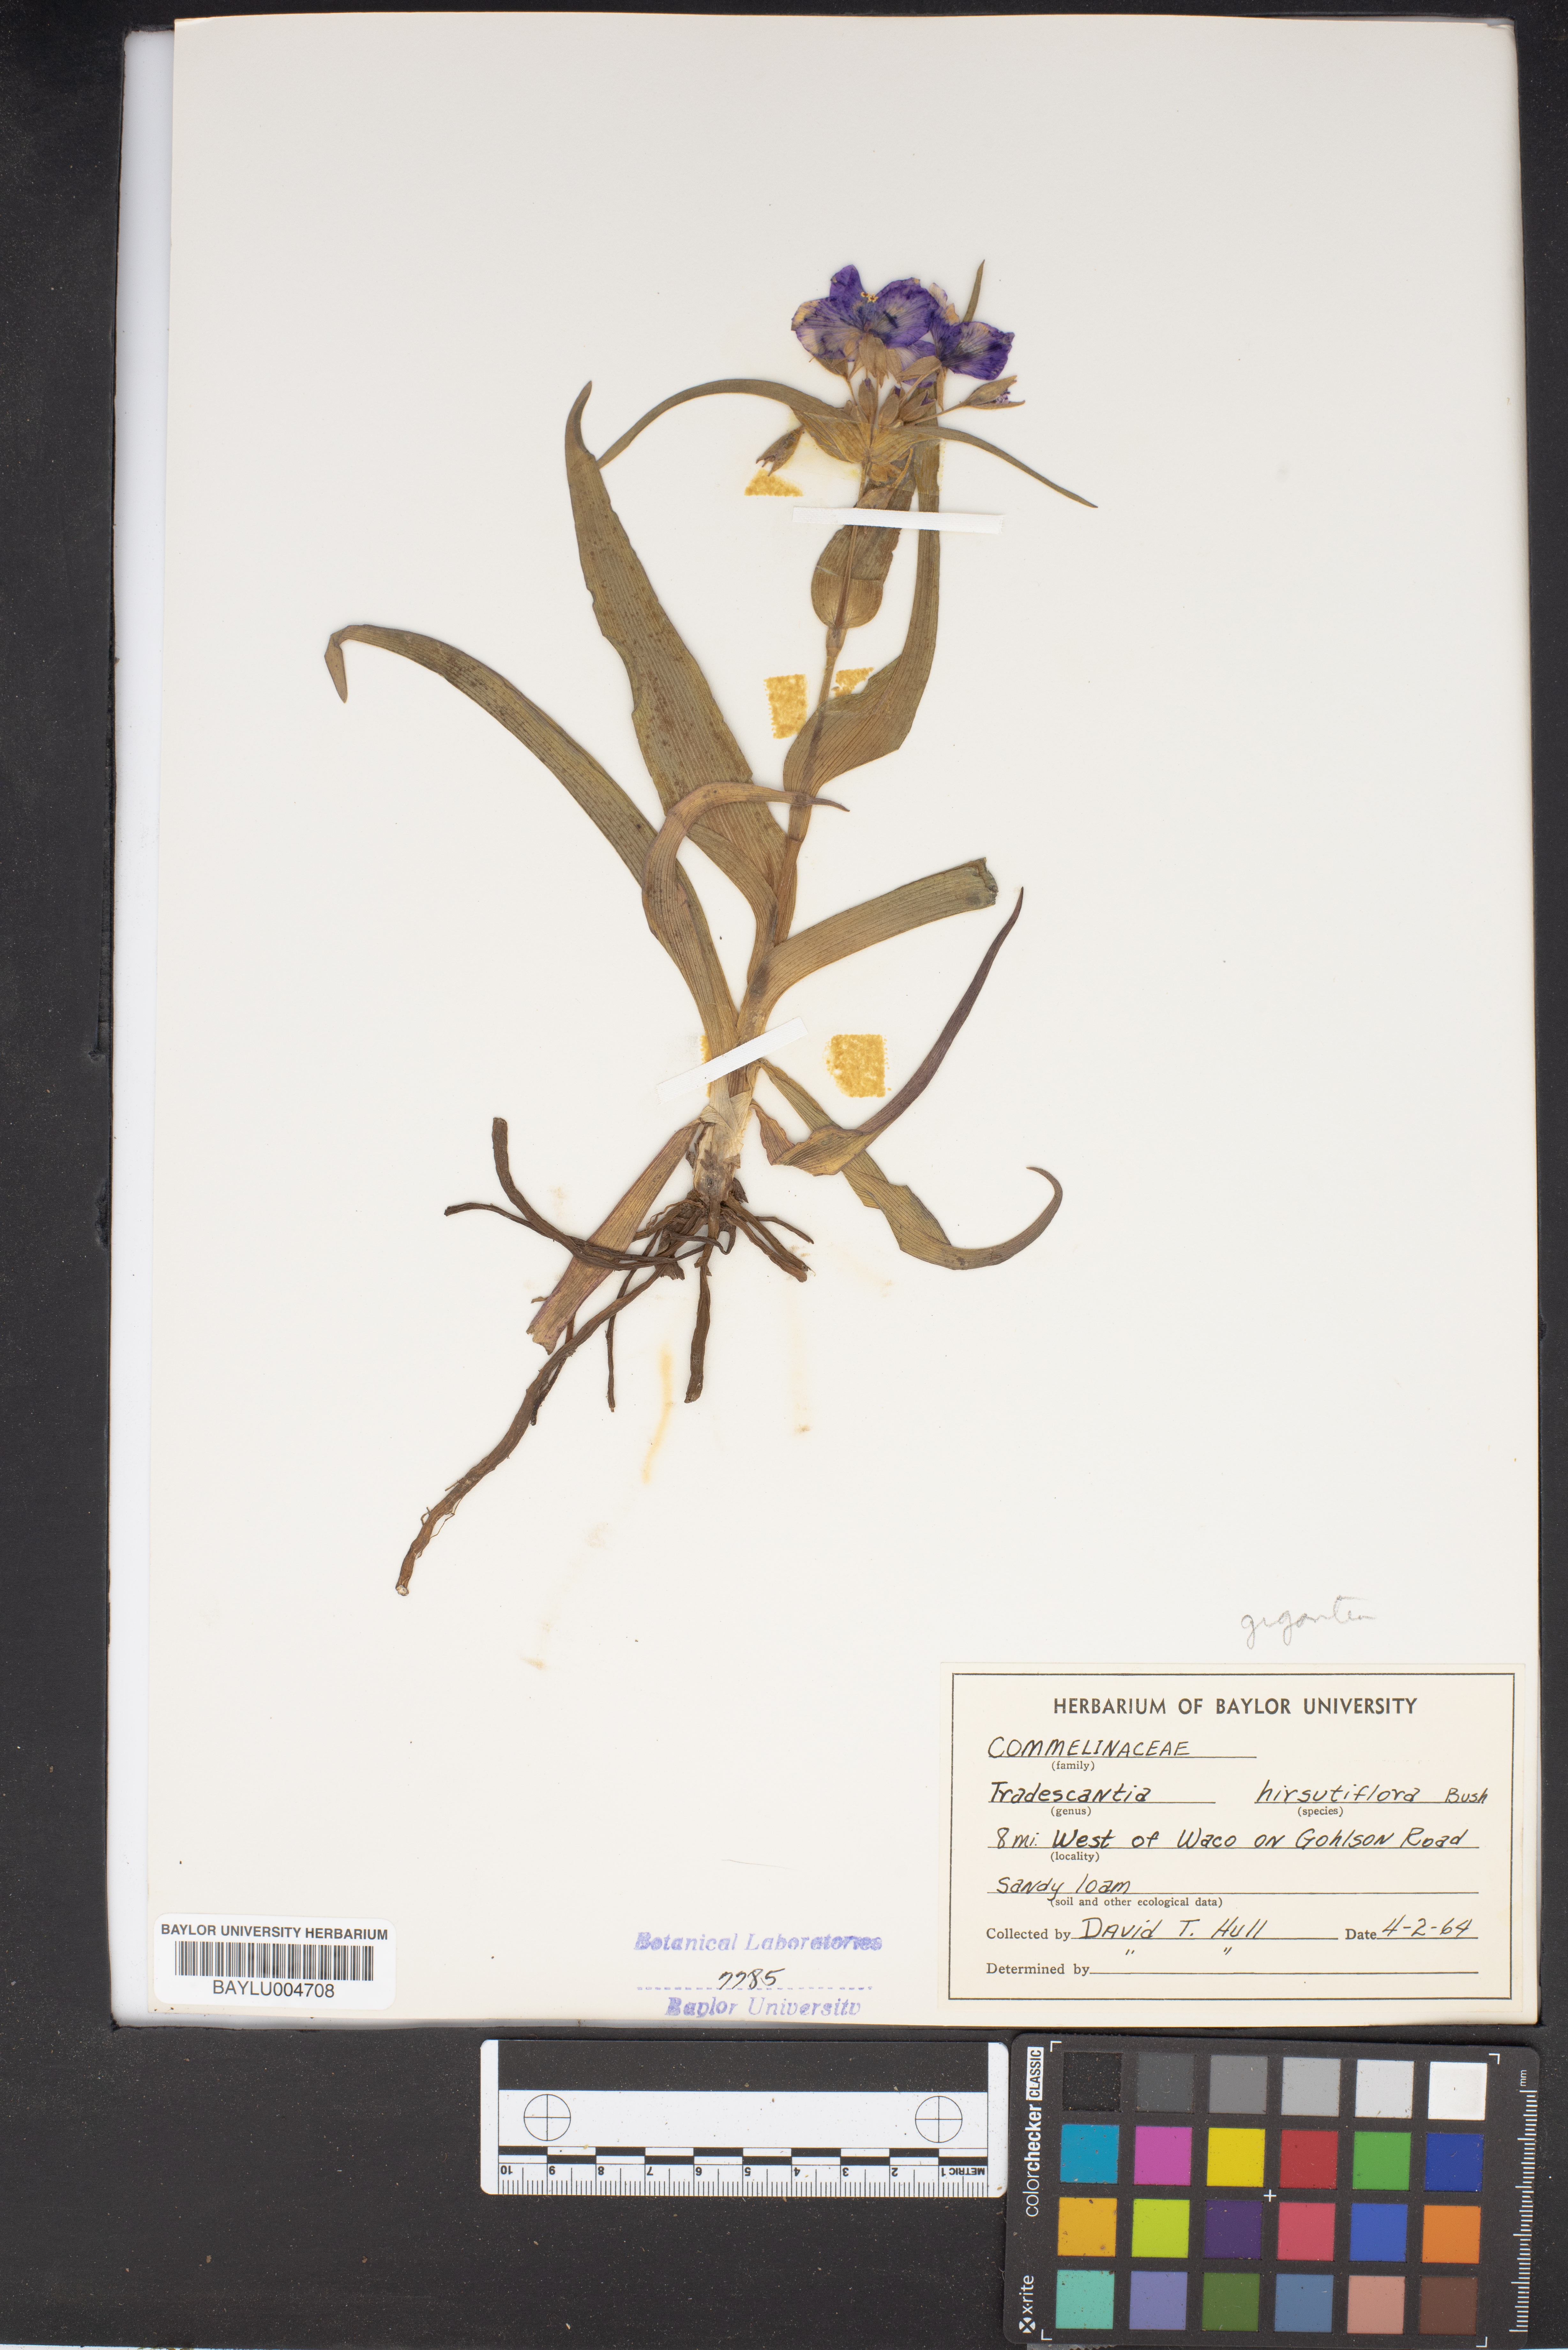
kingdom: Plantae
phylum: Tracheophyta
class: Liliopsida
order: Commelinales
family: Commelinaceae
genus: Tradescantia
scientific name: Tradescantia hirsutiflora
